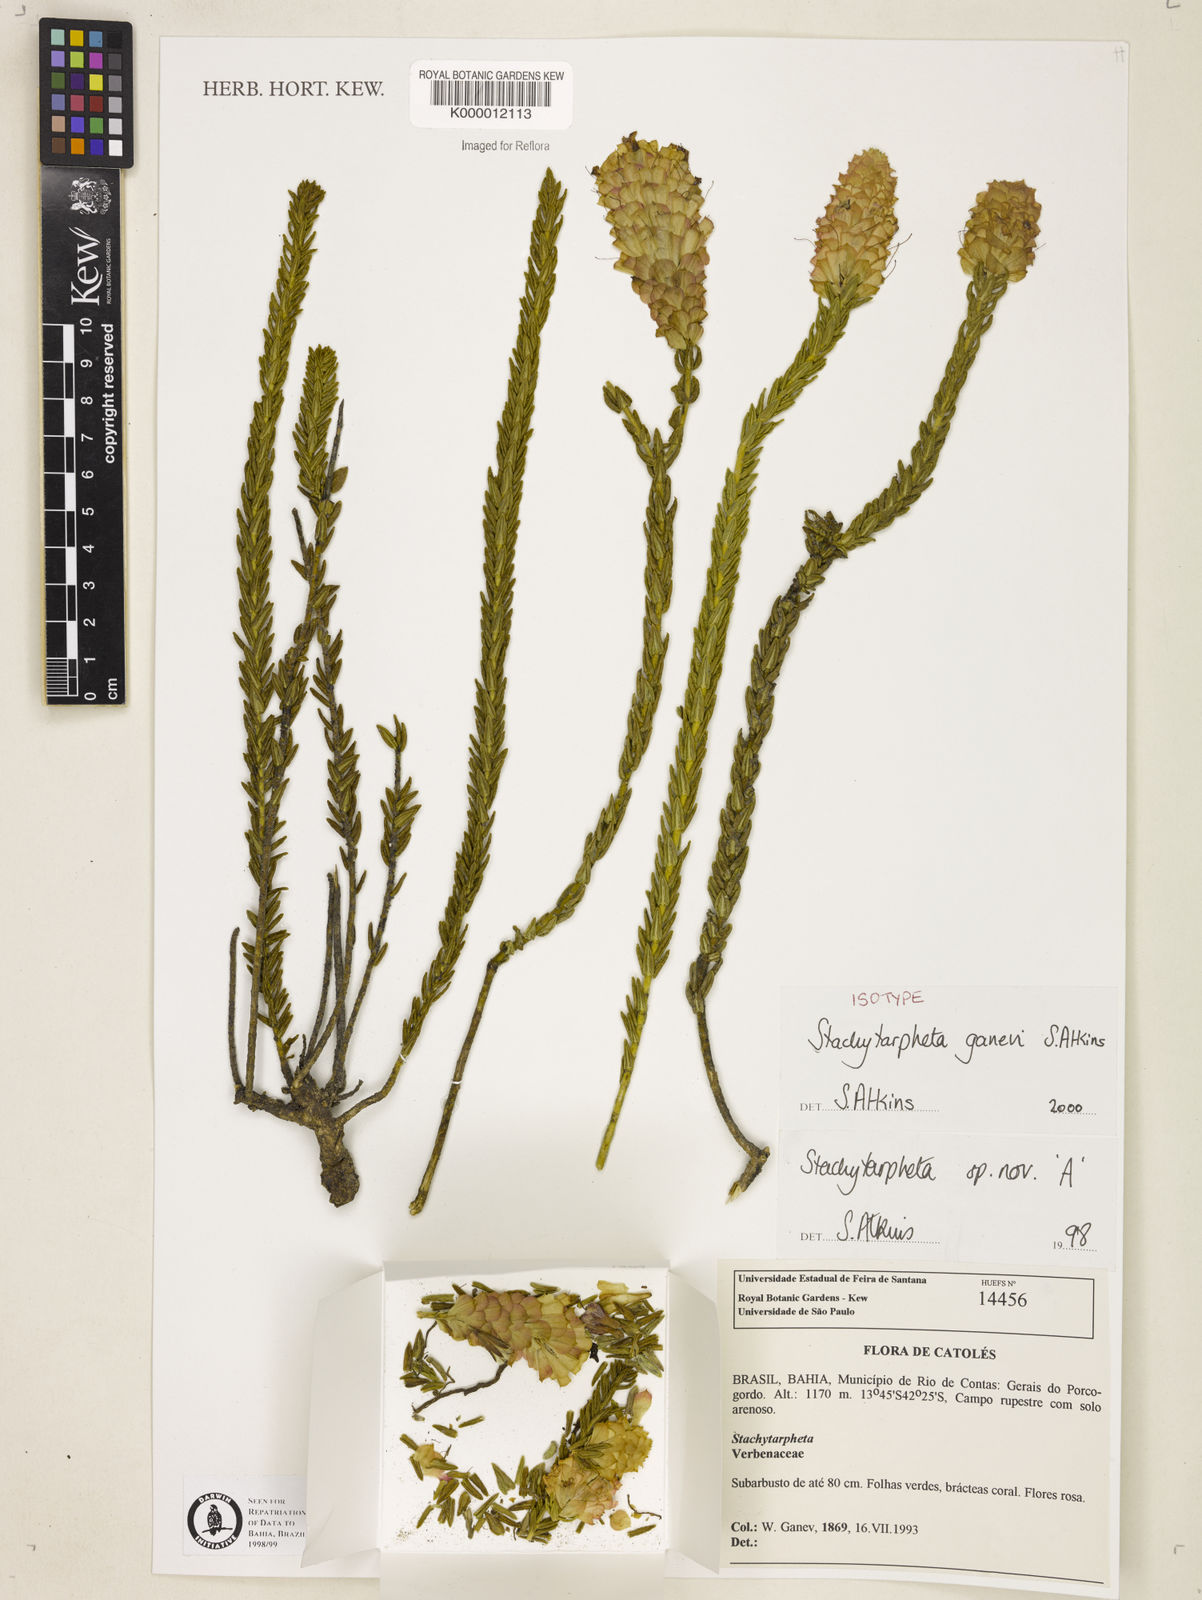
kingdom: Plantae
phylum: Tracheophyta
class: Magnoliopsida
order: Lamiales
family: Verbenaceae
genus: Stachytarpheta
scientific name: Stachytarpheta ganevii
